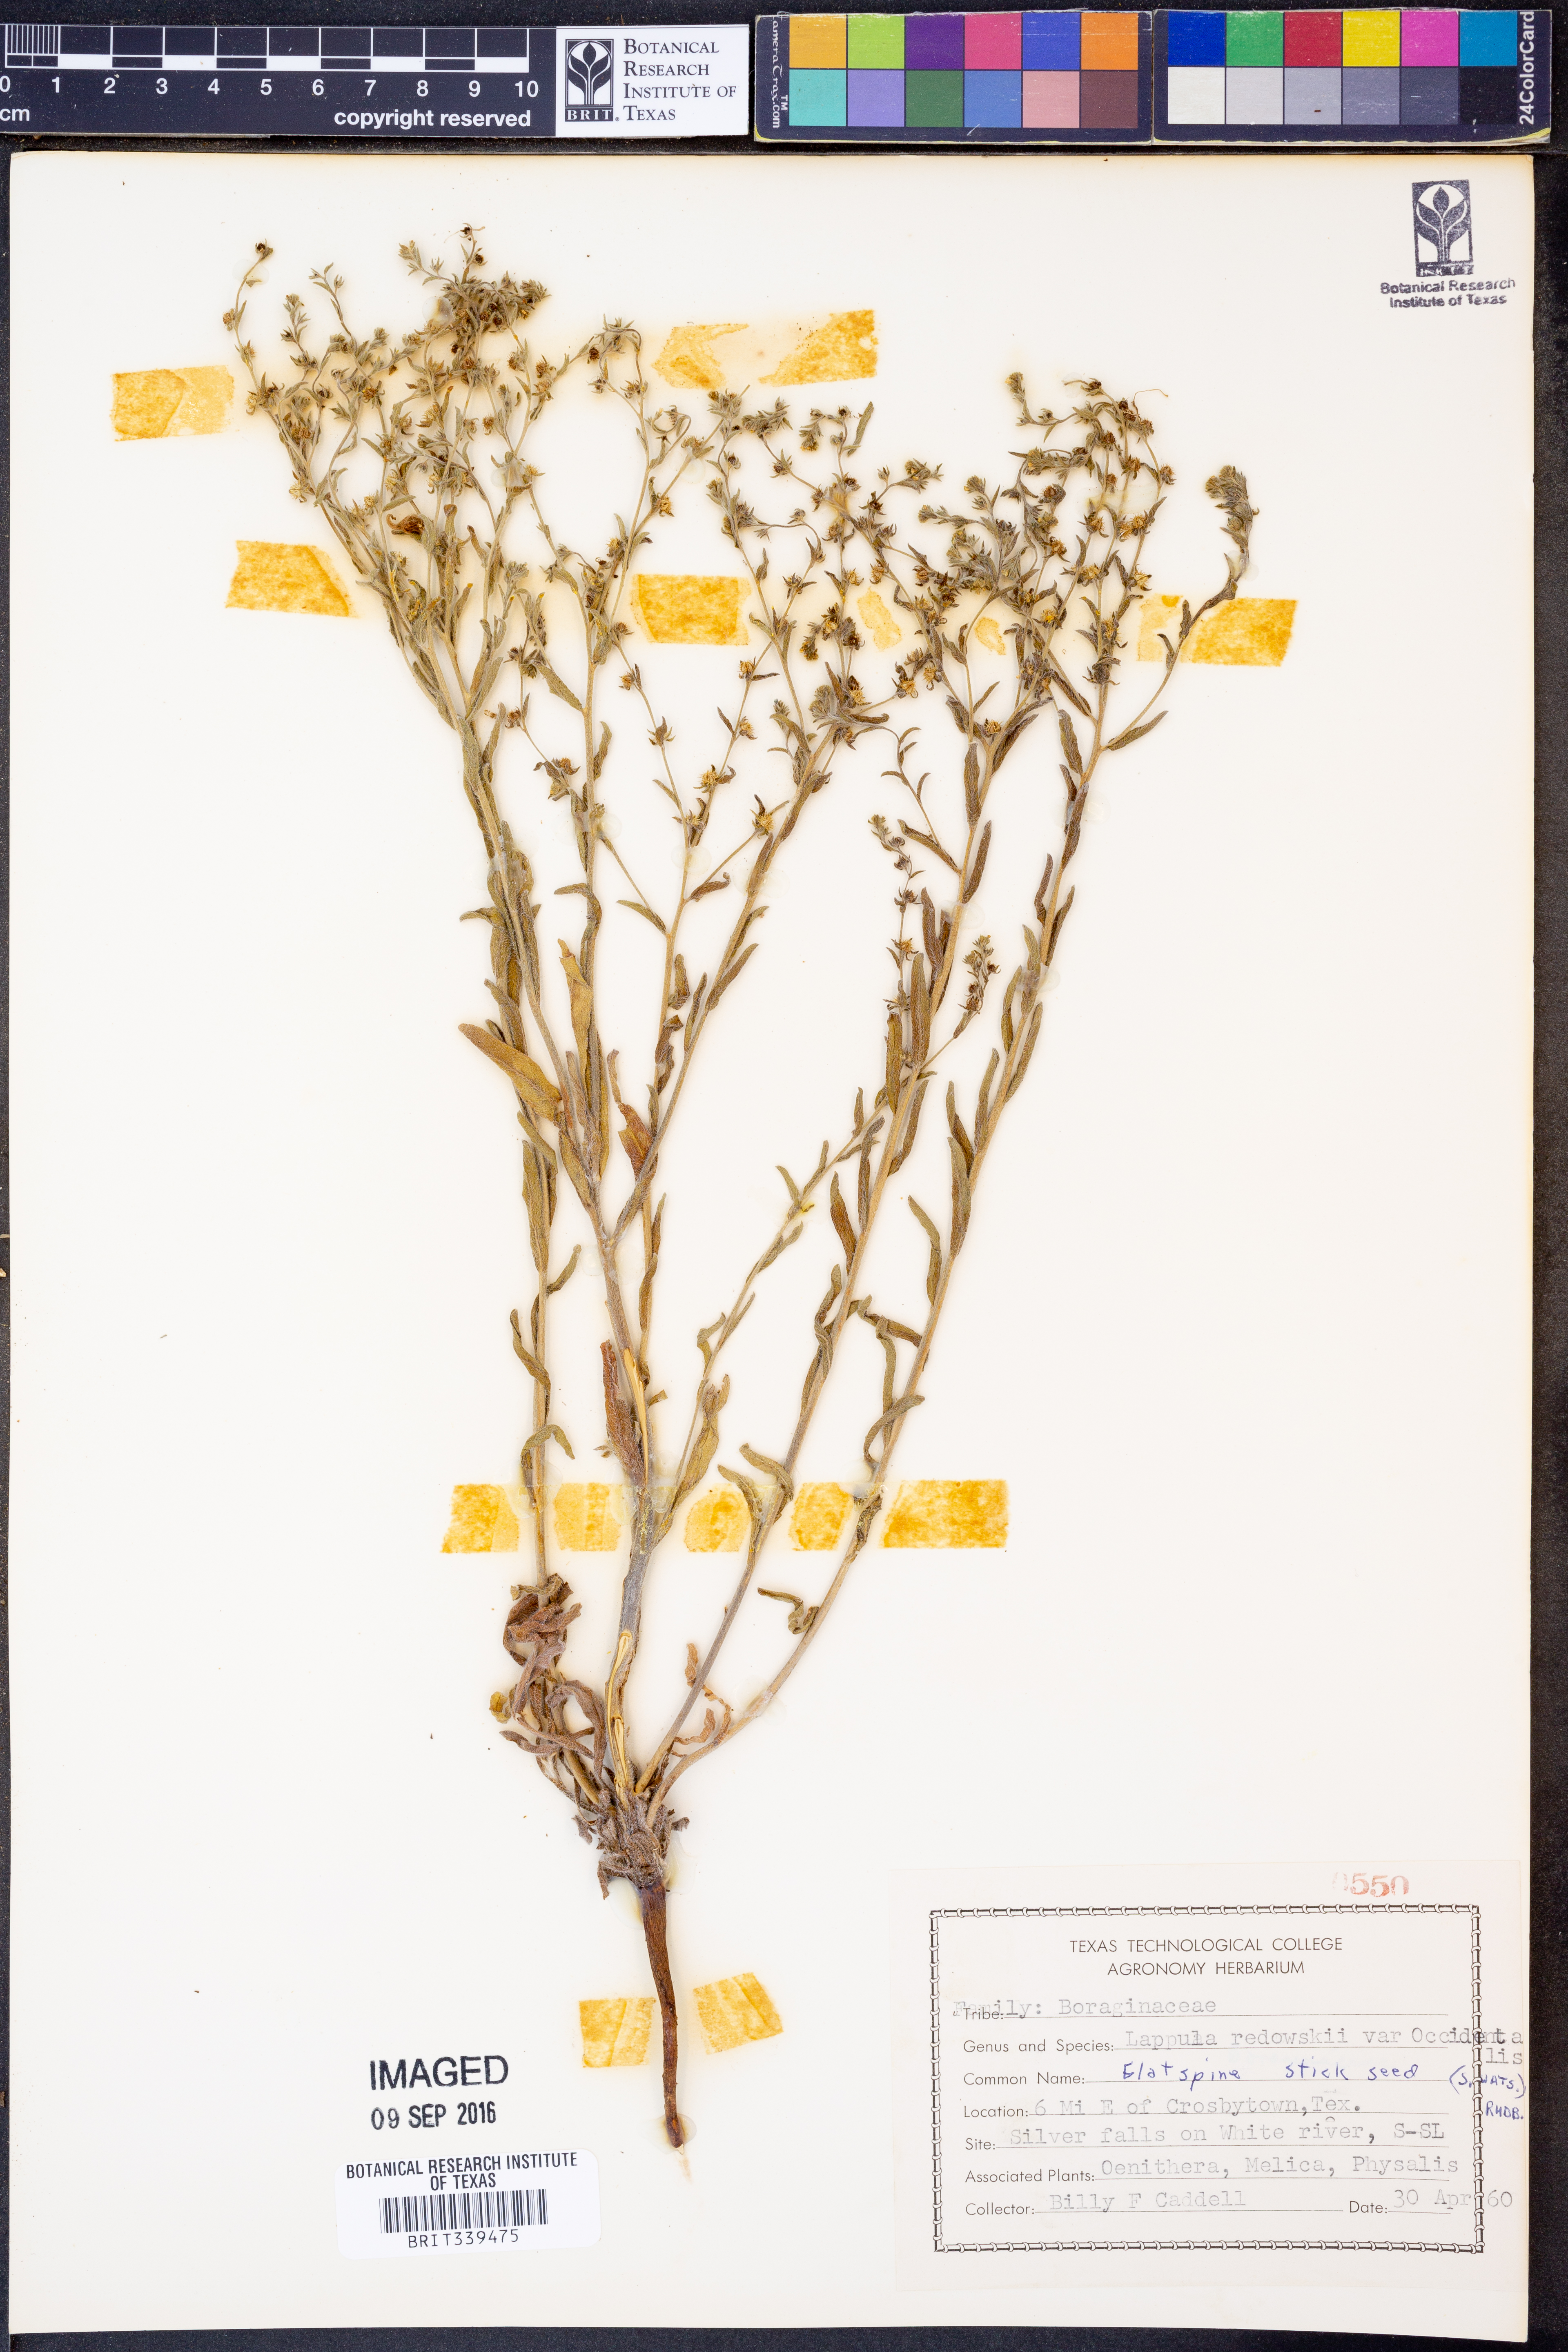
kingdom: Plantae
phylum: Tracheophyta
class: Magnoliopsida
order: Boraginales
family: Boraginaceae
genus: Lappula
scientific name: Lappula occidentalis
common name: Western stickseed
